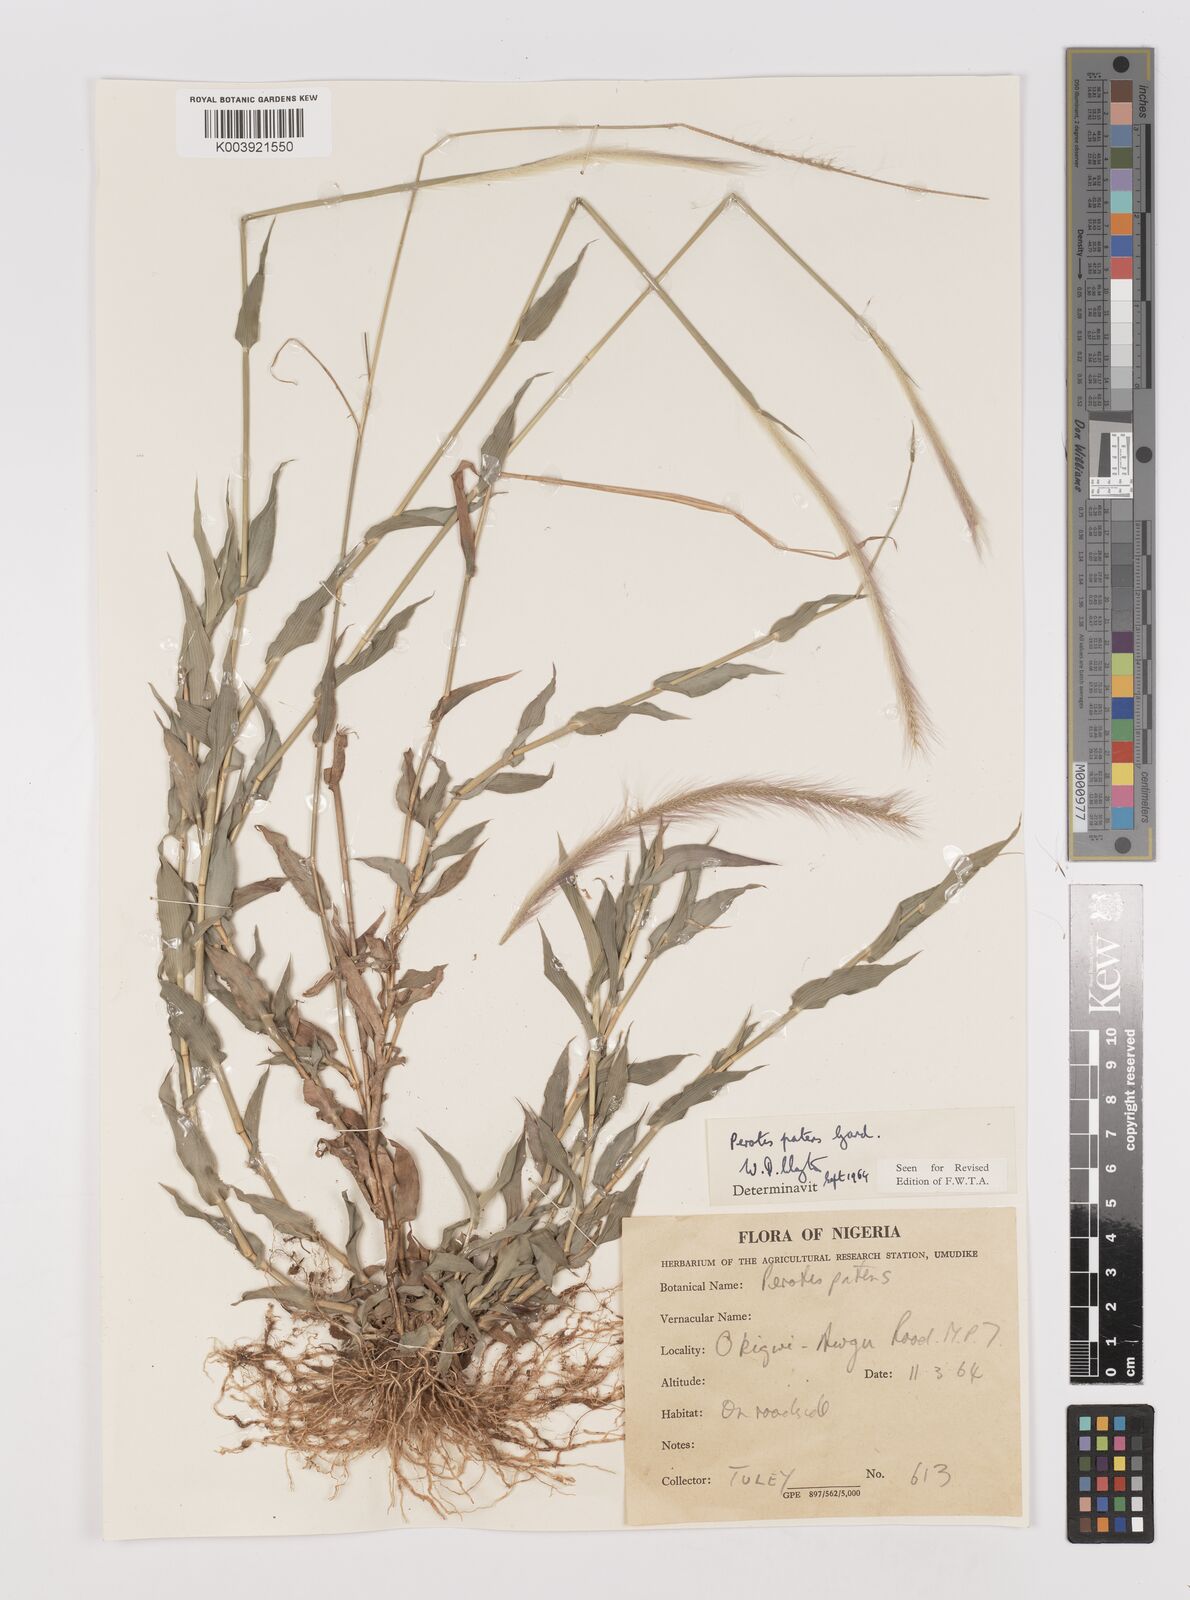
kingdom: Plantae
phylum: Tracheophyta
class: Liliopsida
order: Poales
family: Poaceae
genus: Perotis
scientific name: Perotis patens
